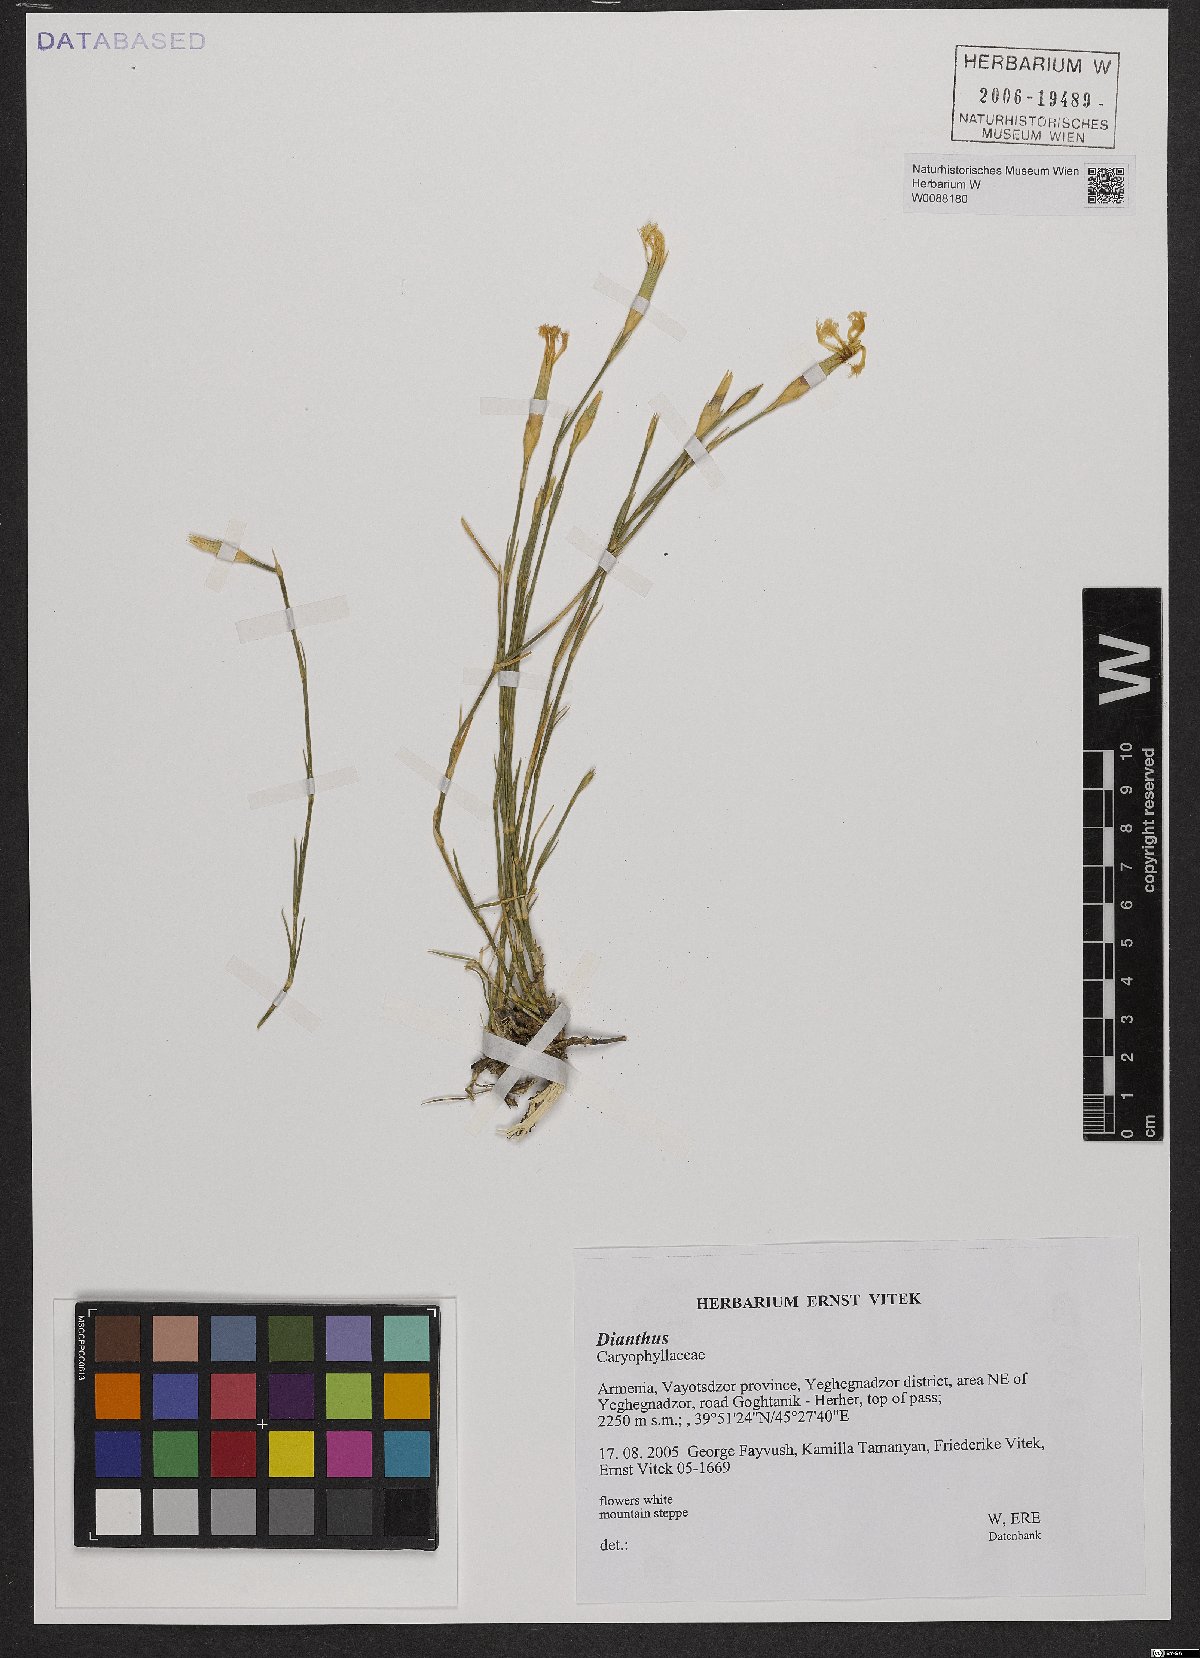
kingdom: Plantae
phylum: Tracheophyta
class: Magnoliopsida
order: Caryophyllales
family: Caryophyllaceae
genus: Dianthus
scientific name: Dianthus
